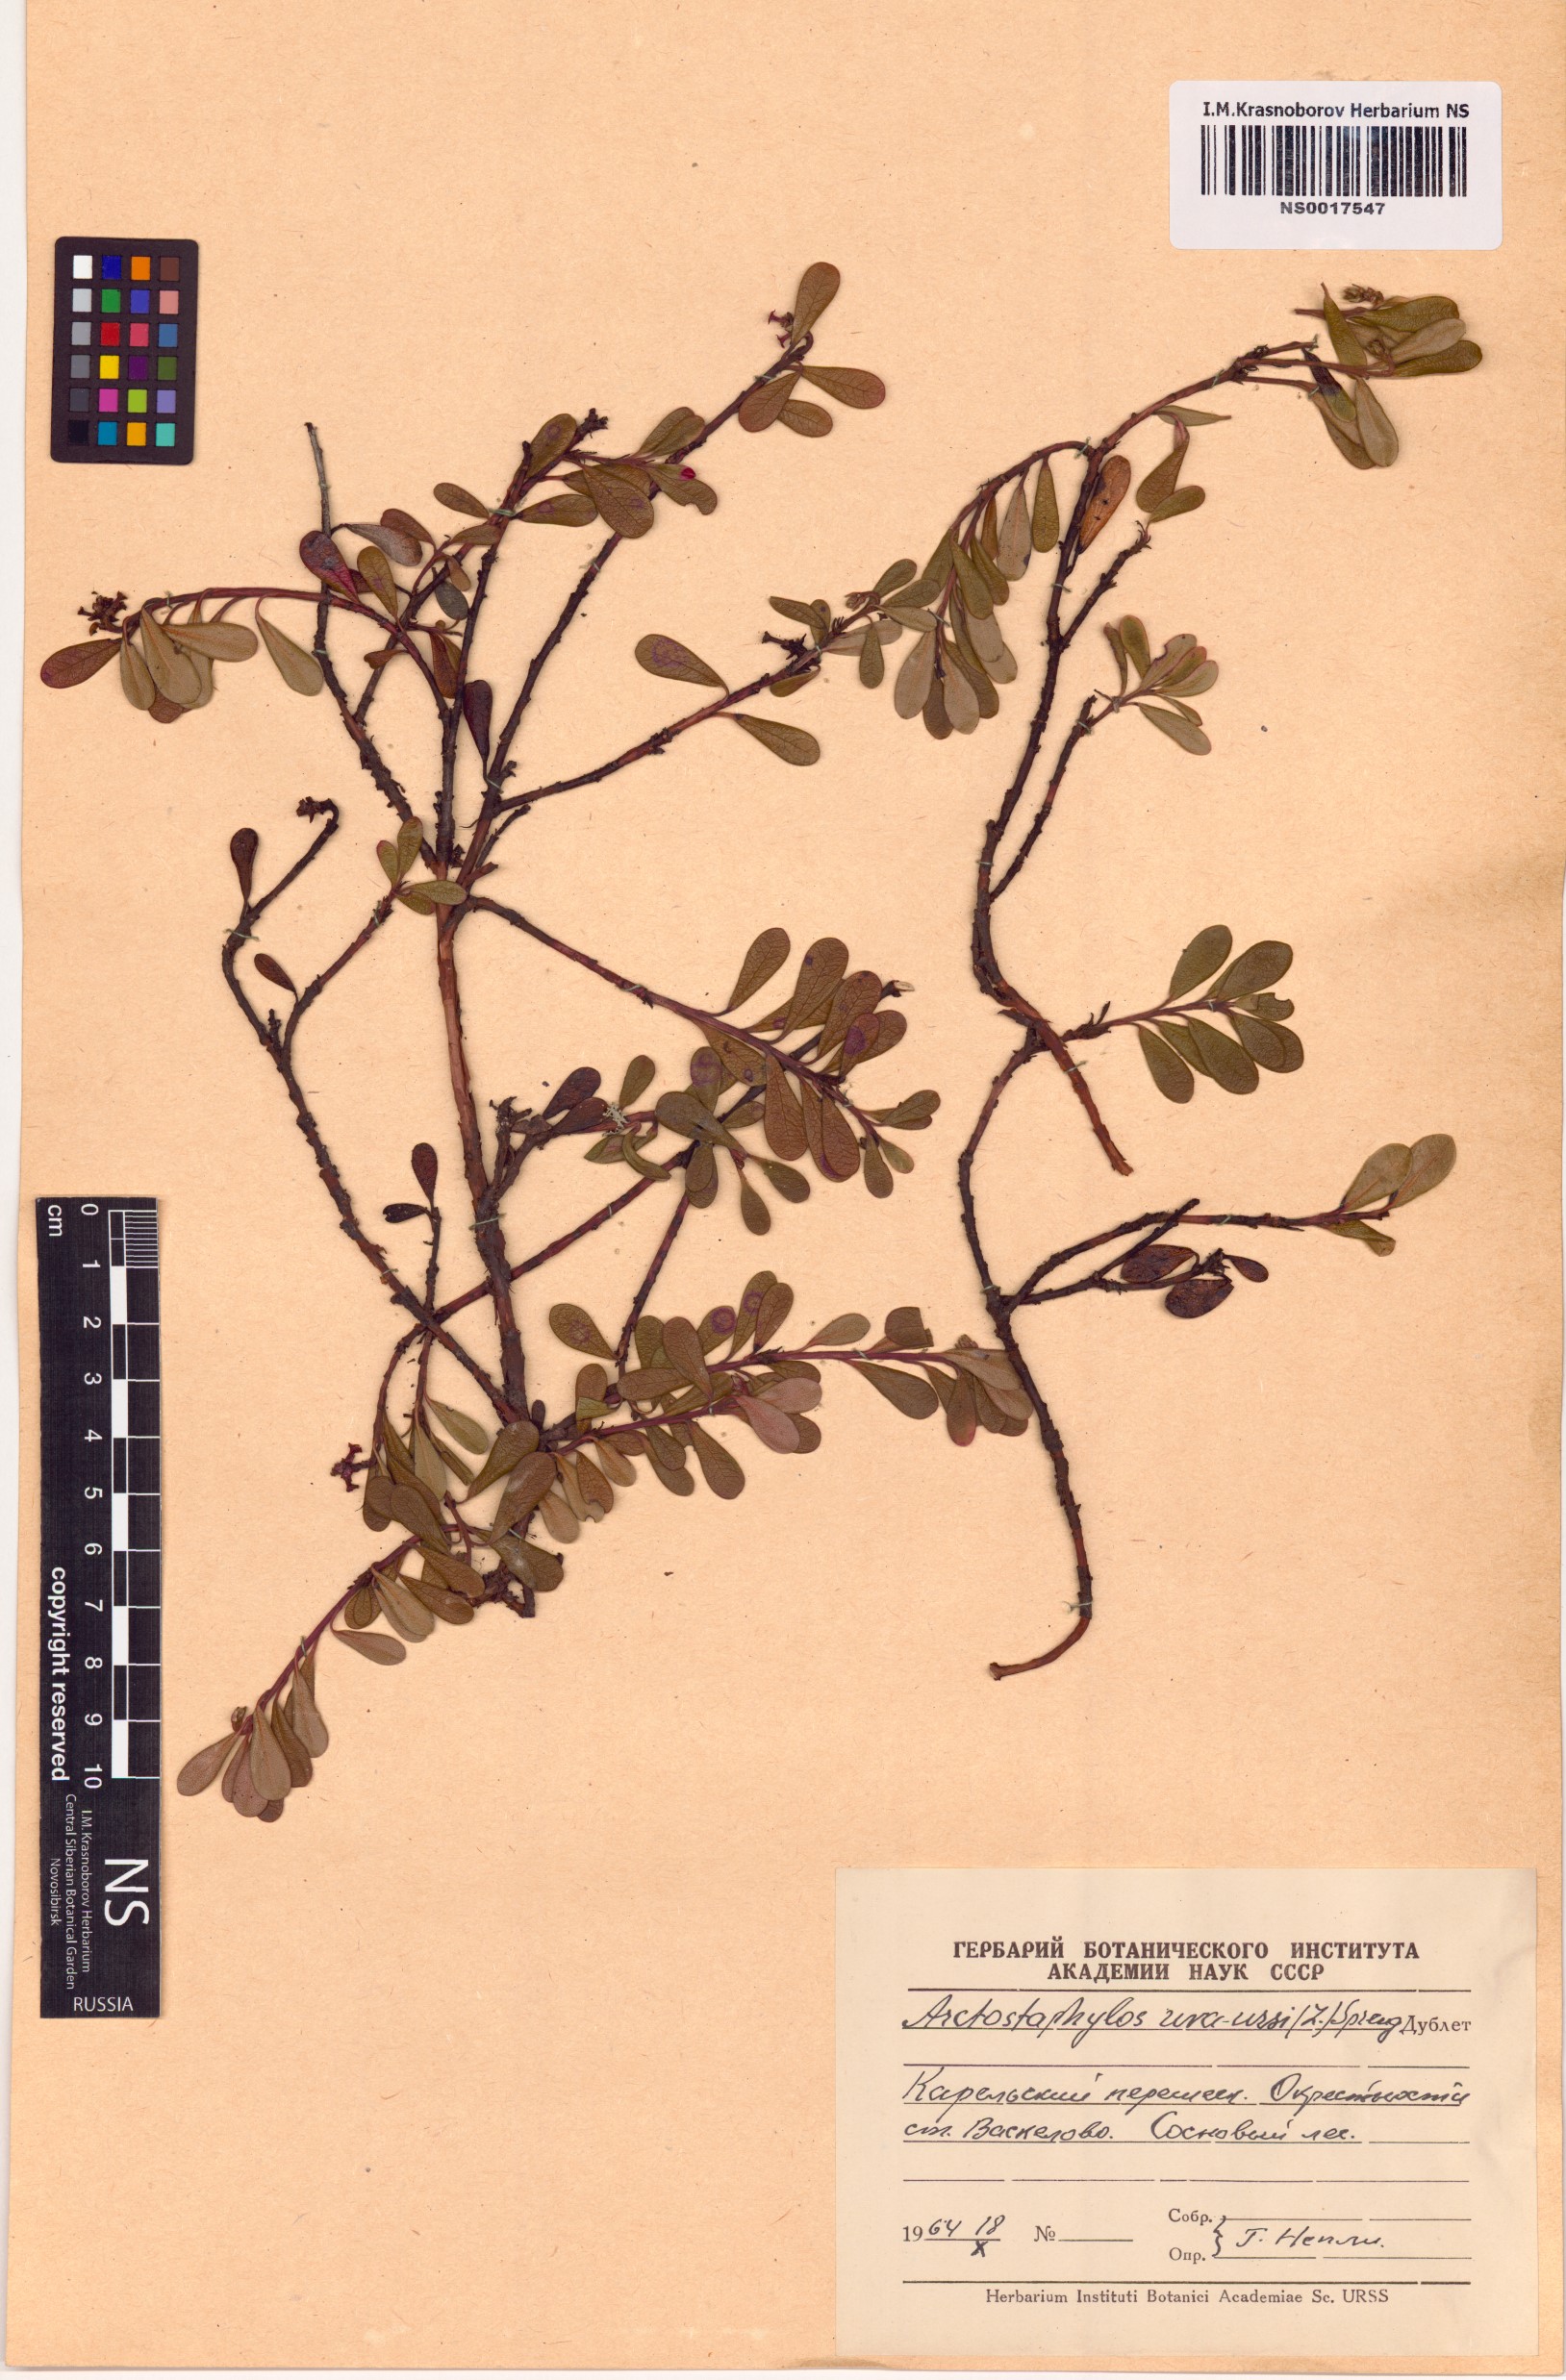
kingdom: Plantae
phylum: Tracheophyta
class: Magnoliopsida
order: Ericales
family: Ericaceae
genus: Arctostaphylos
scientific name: Arctostaphylos uva-ursi
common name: Bearberry
